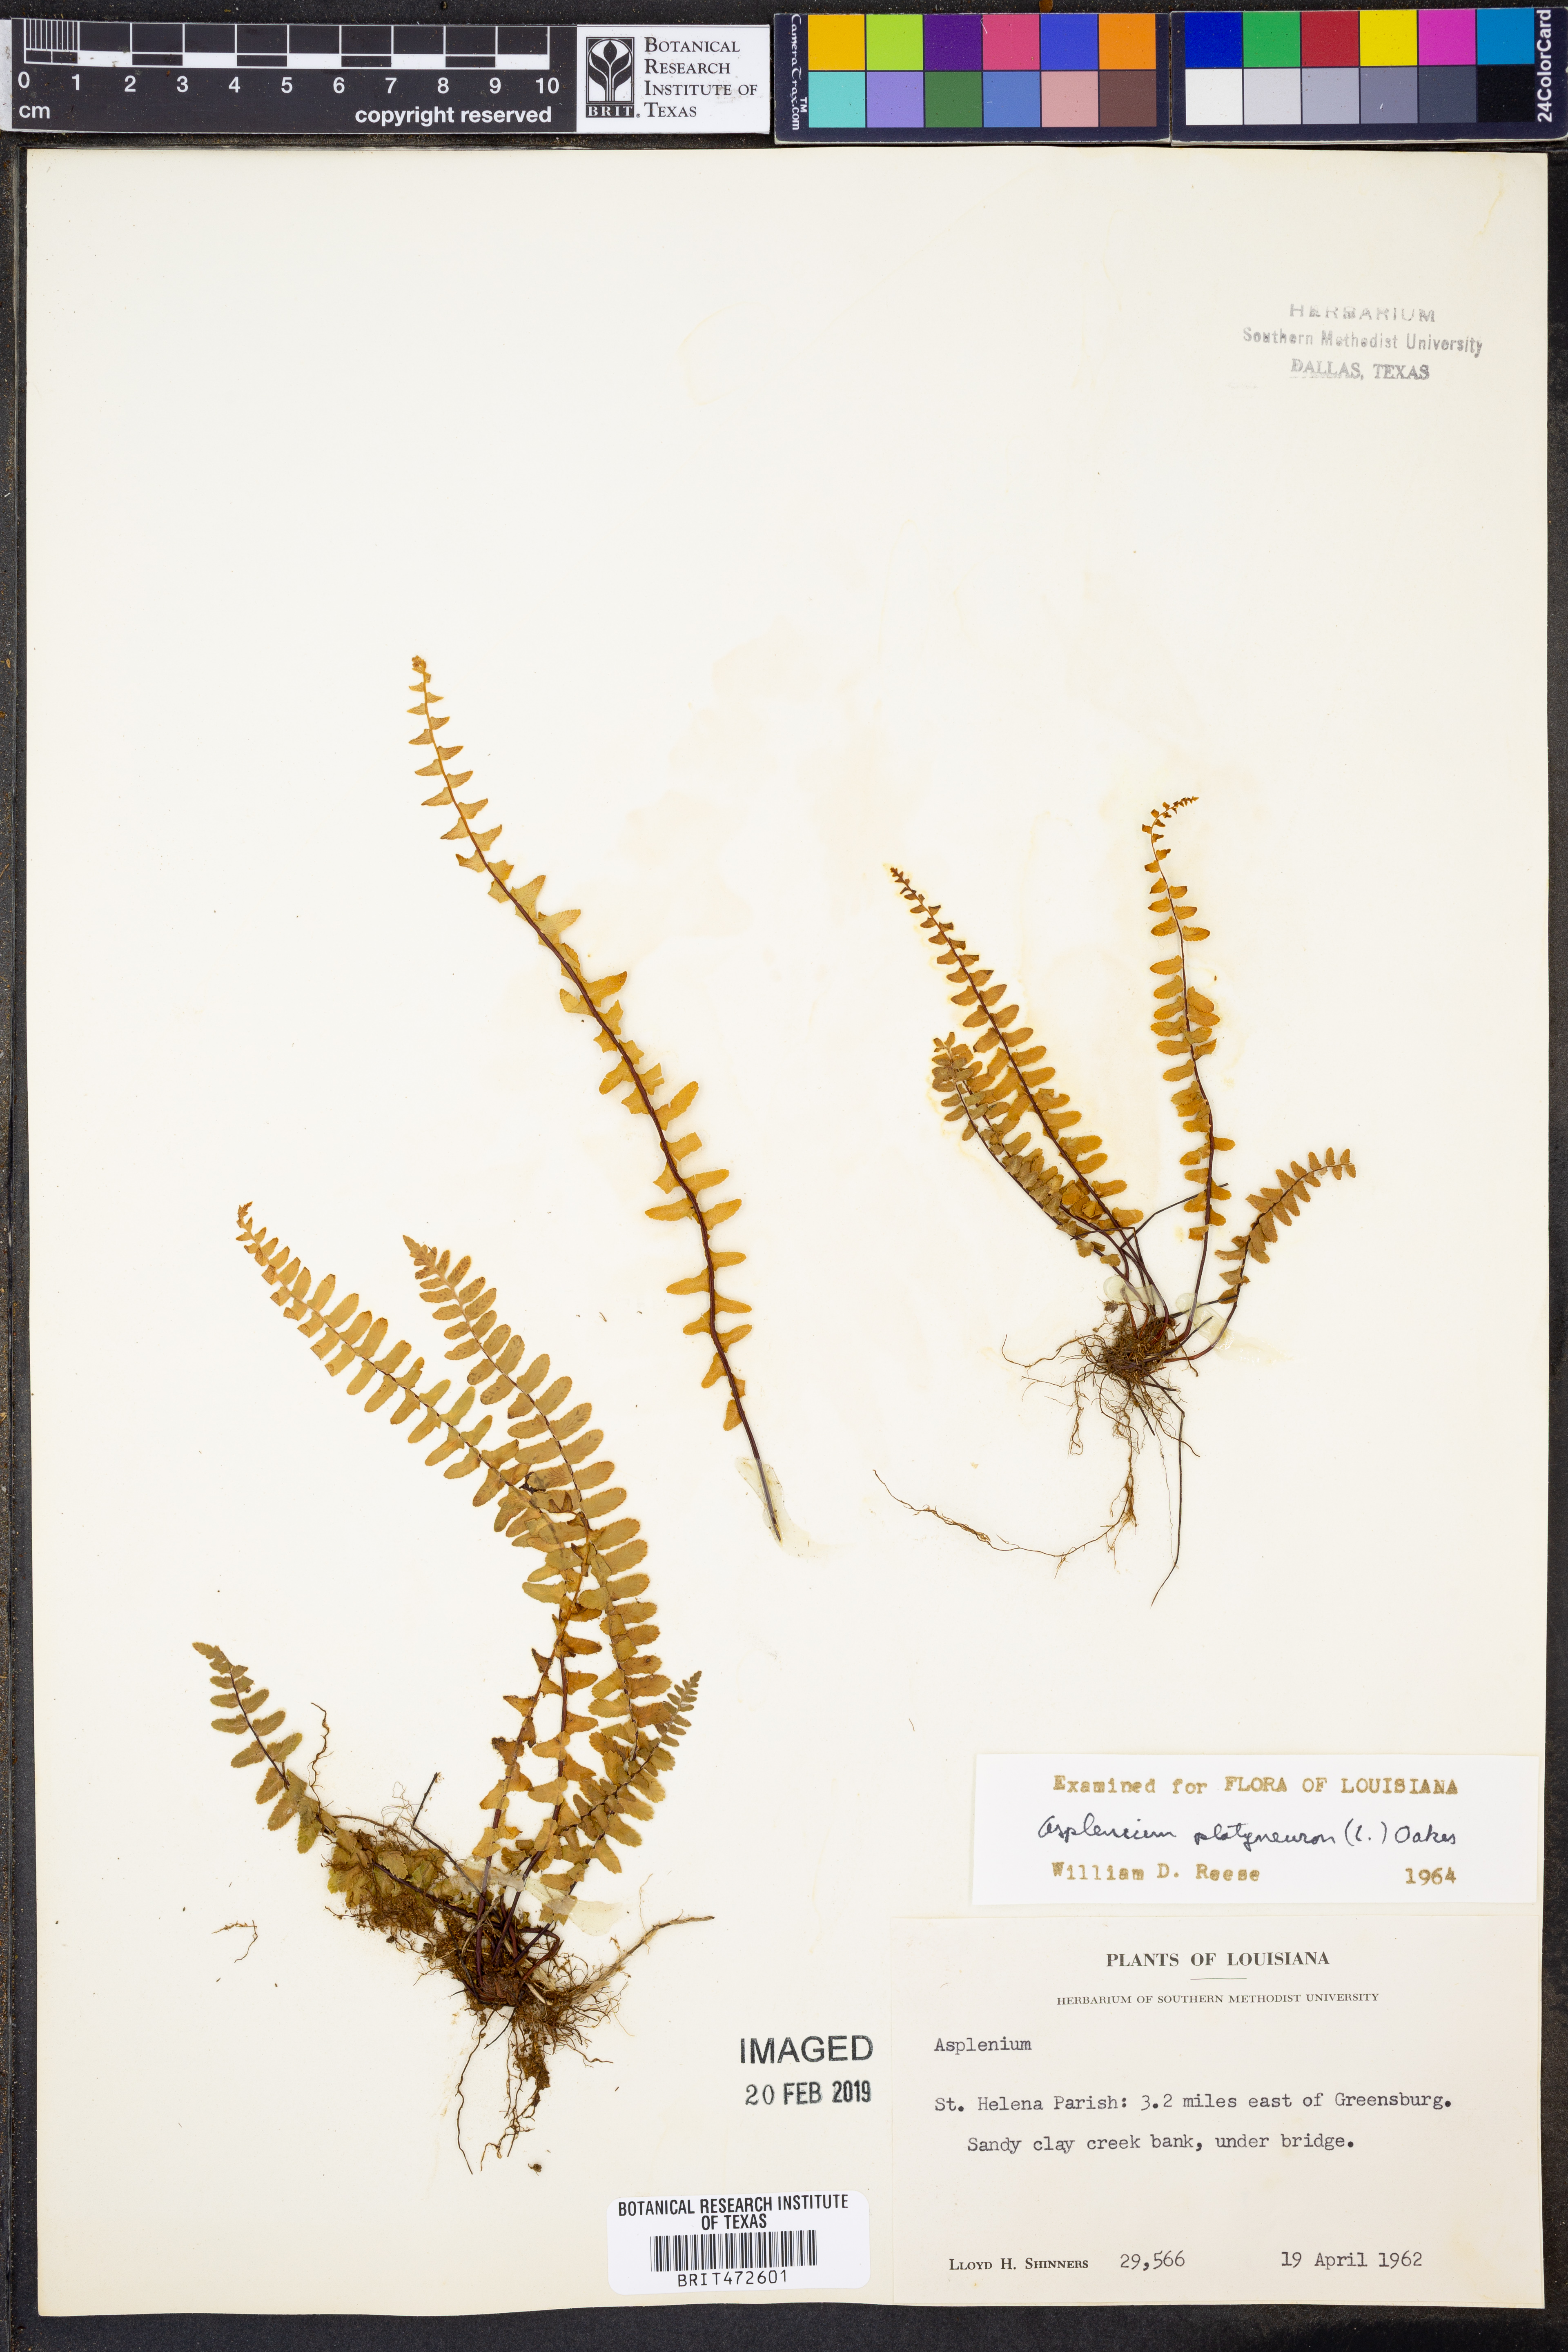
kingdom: Plantae
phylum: Tracheophyta
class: Polypodiopsida
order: Polypodiales
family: Aspleniaceae
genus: Asplenium
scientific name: Asplenium platyneuron
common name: Ebony spleenwort
